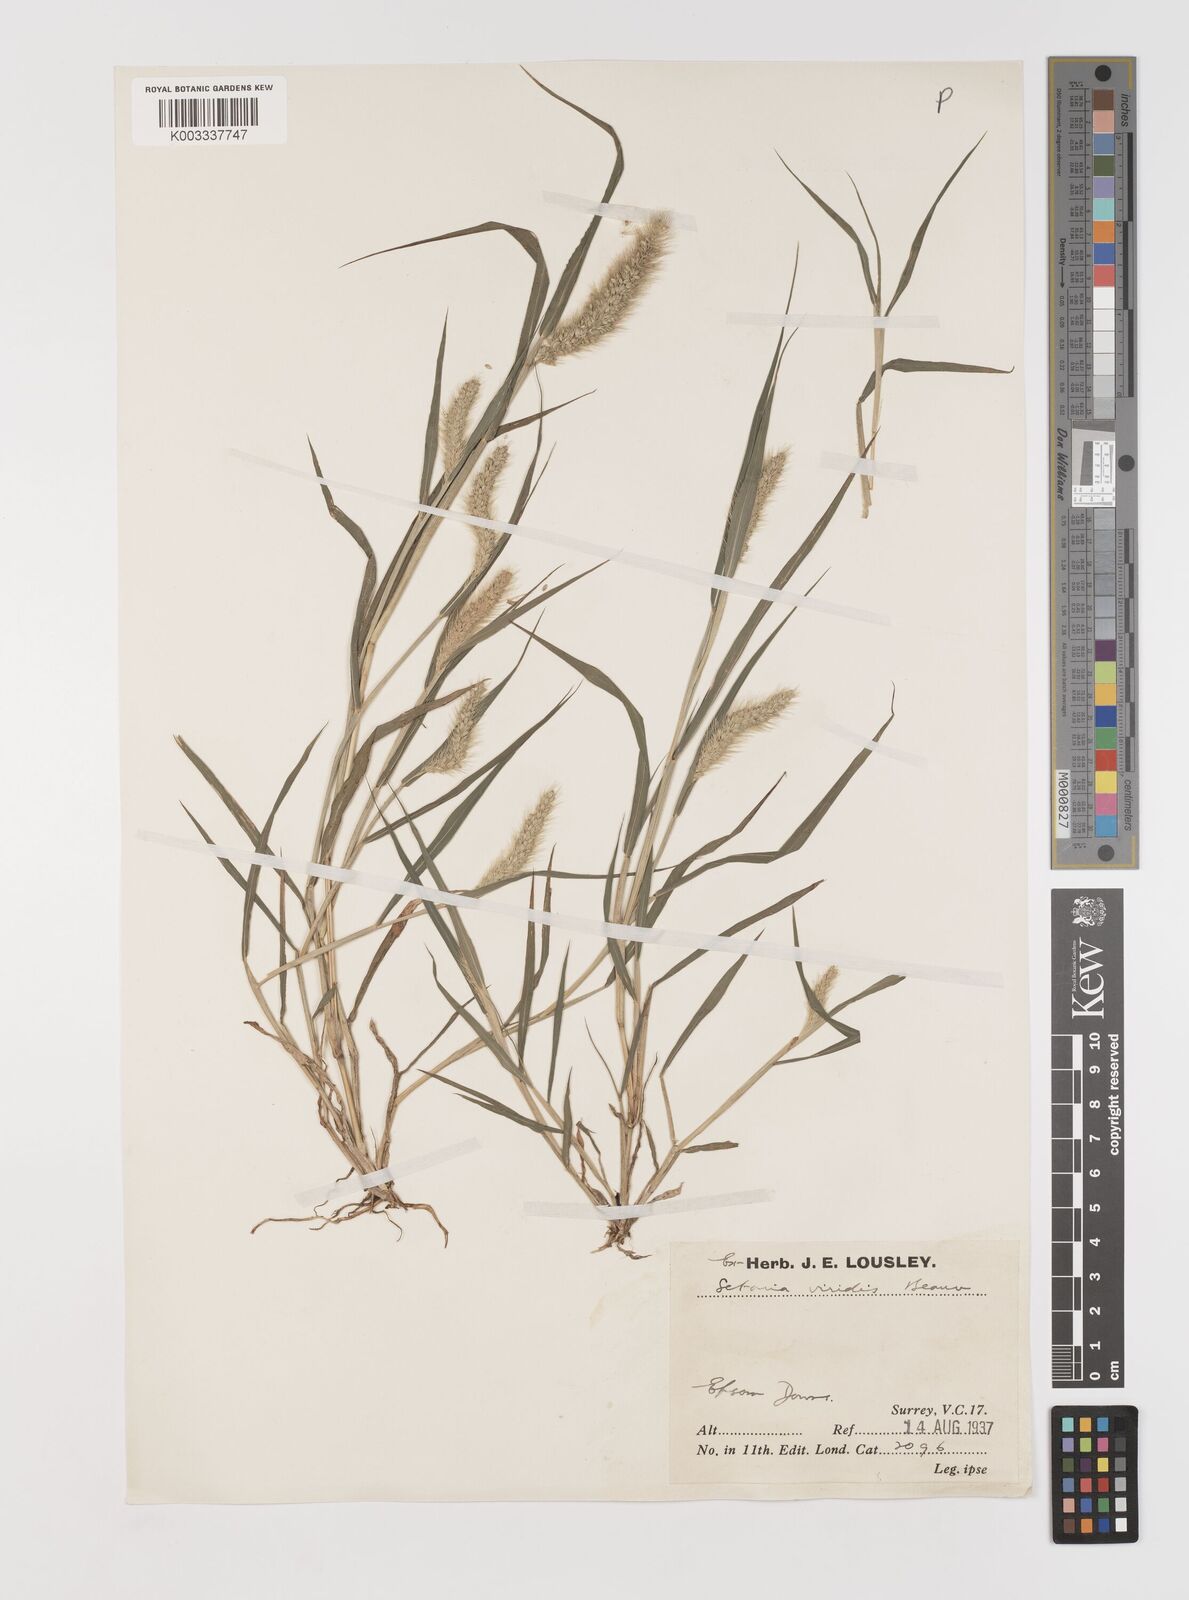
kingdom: Plantae
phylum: Tracheophyta
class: Liliopsida
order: Poales
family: Poaceae
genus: Setaria
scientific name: Setaria viridis
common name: Green bristlegrass
